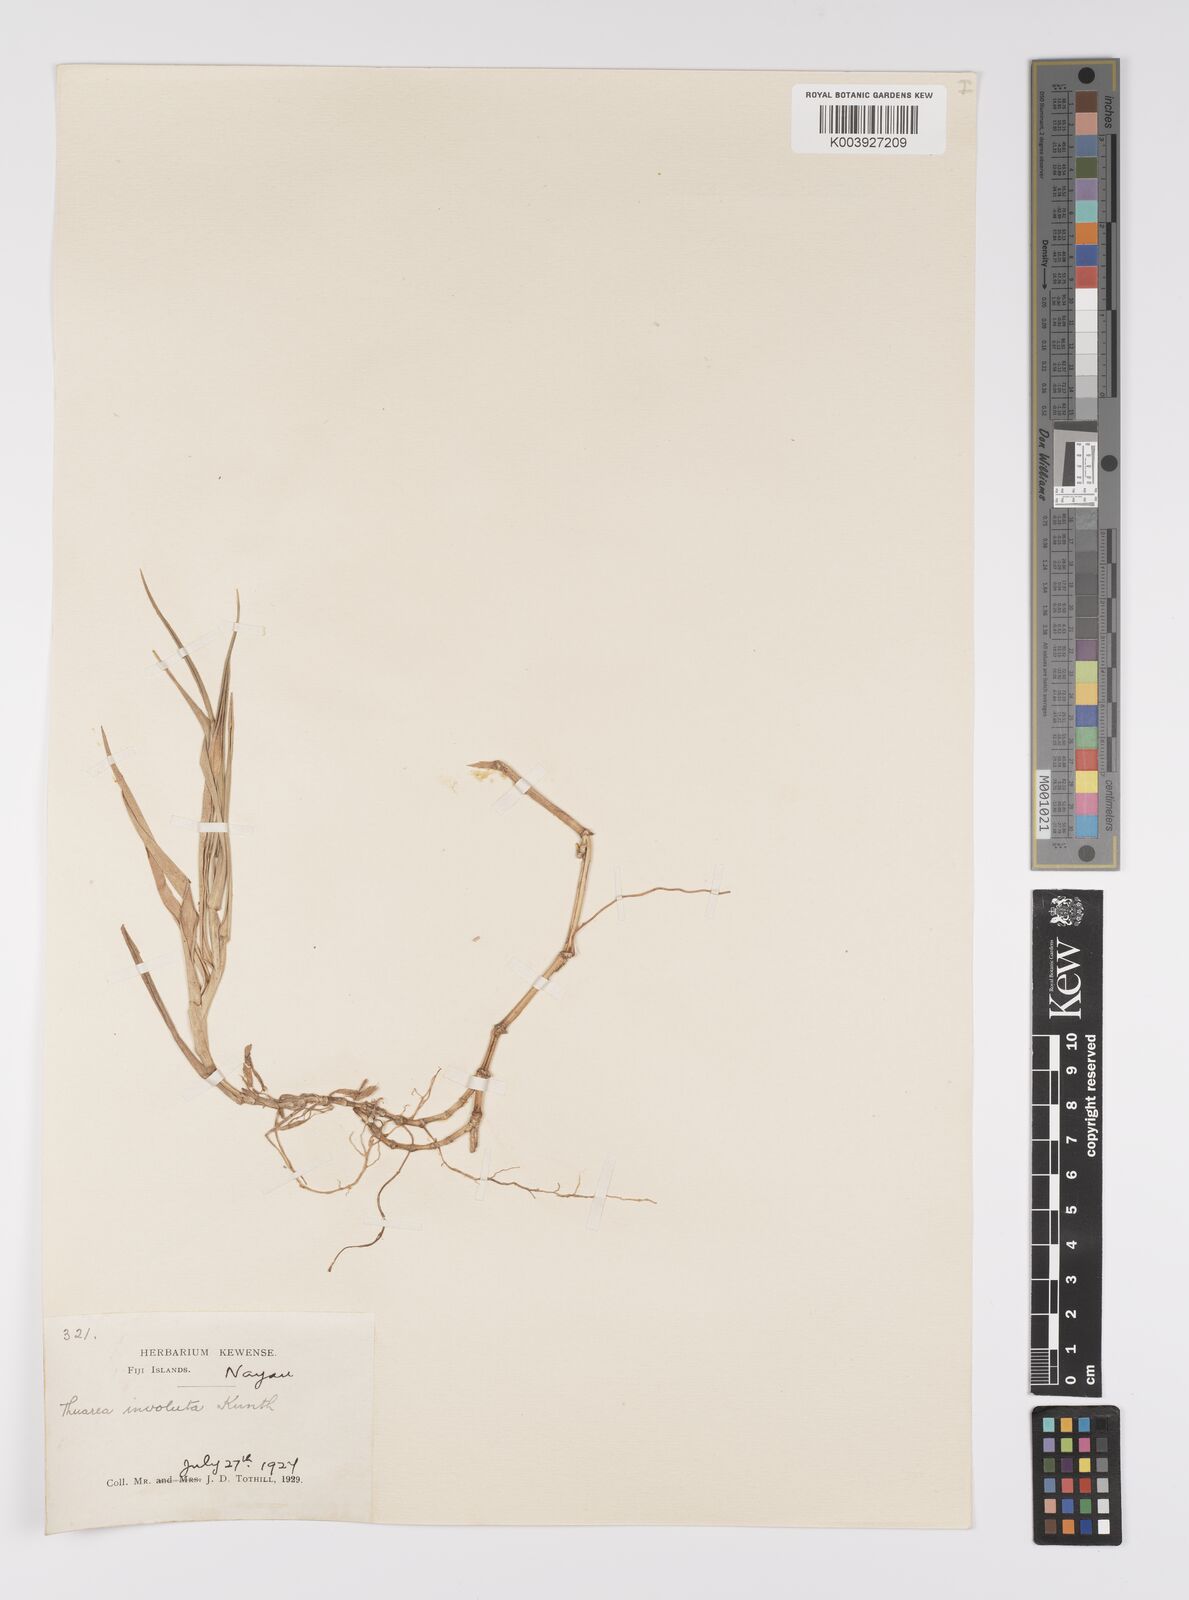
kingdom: Plantae
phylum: Tracheophyta
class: Liliopsida
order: Poales
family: Poaceae
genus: Thuarea
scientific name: Thuarea involuta
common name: Tropical beach grass
